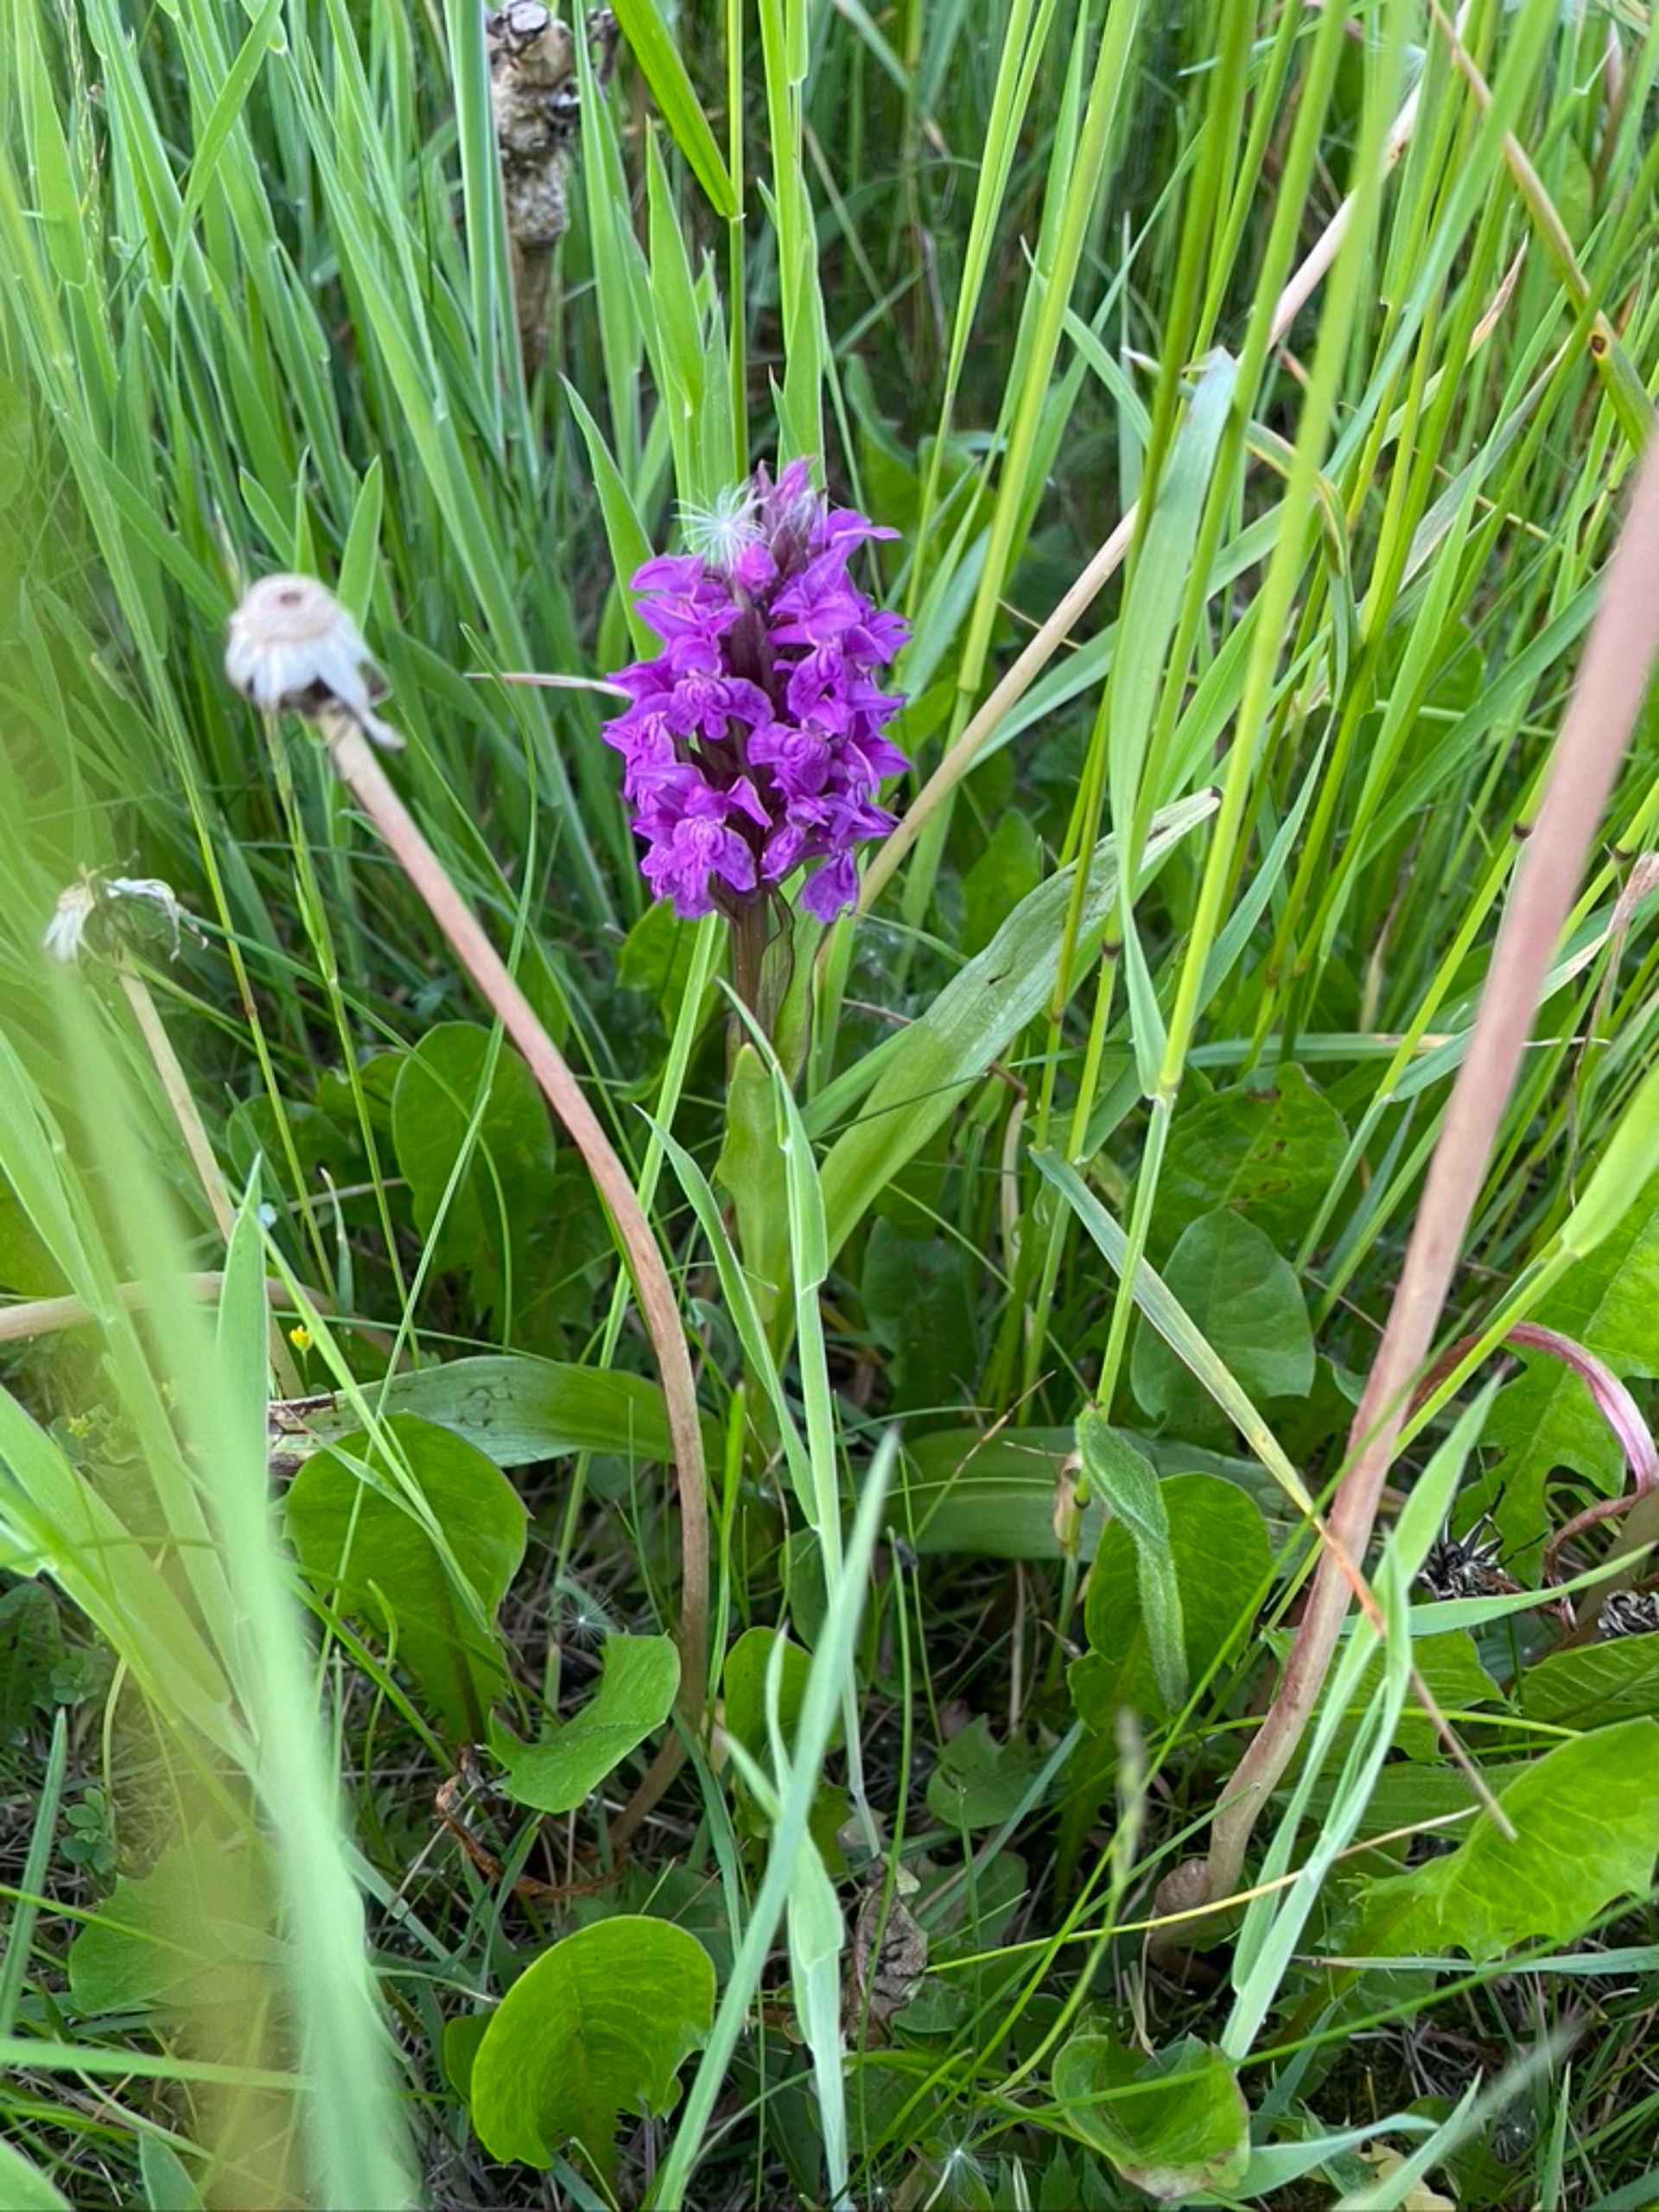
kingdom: Plantae
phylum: Tracheophyta
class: Liliopsida
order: Asparagales
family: Orchidaceae
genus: Dactylorhiza
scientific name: Dactylorhiza majalis
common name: Maj-gøgeurt
